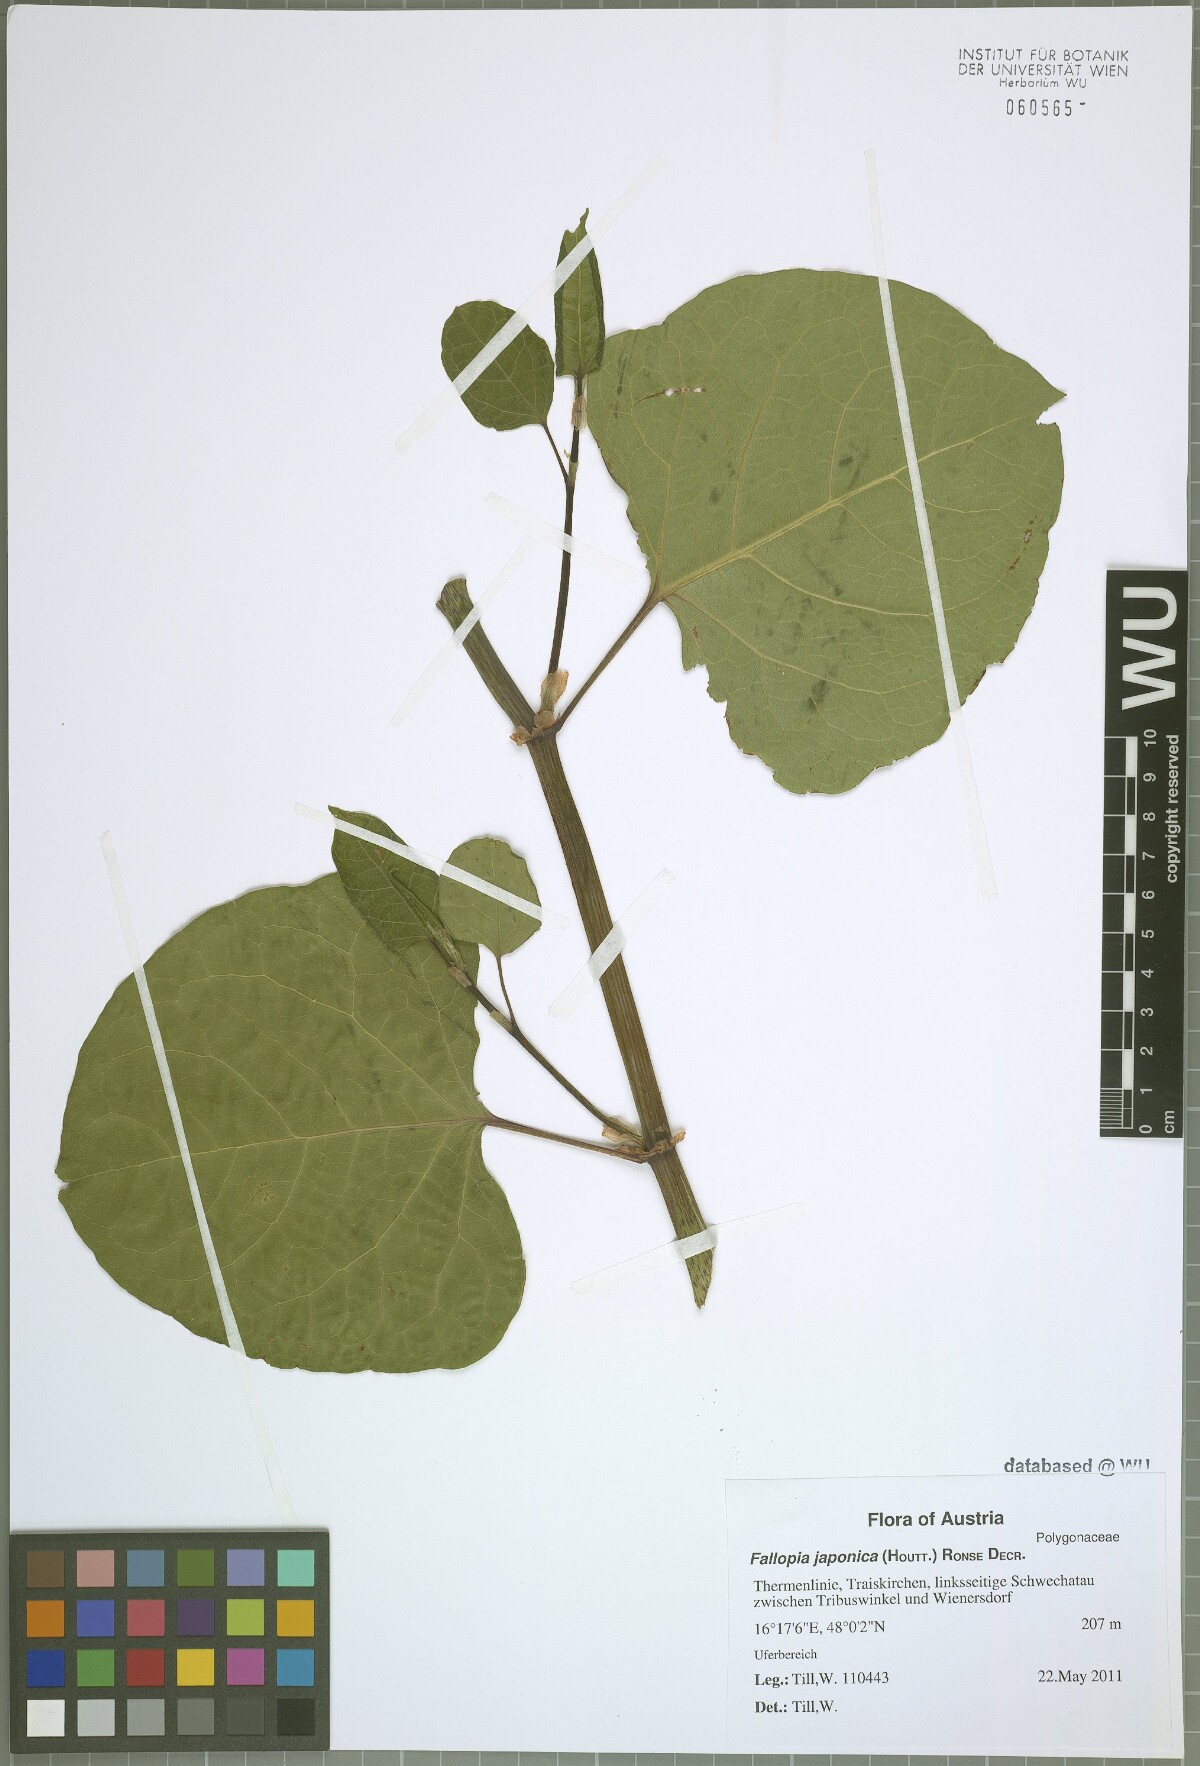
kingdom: Plantae
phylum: Tracheophyta
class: Magnoliopsida
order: Caryophyllales
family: Polygonaceae
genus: Reynoutria
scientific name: Reynoutria bohemica
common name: Bohemian knotweed
